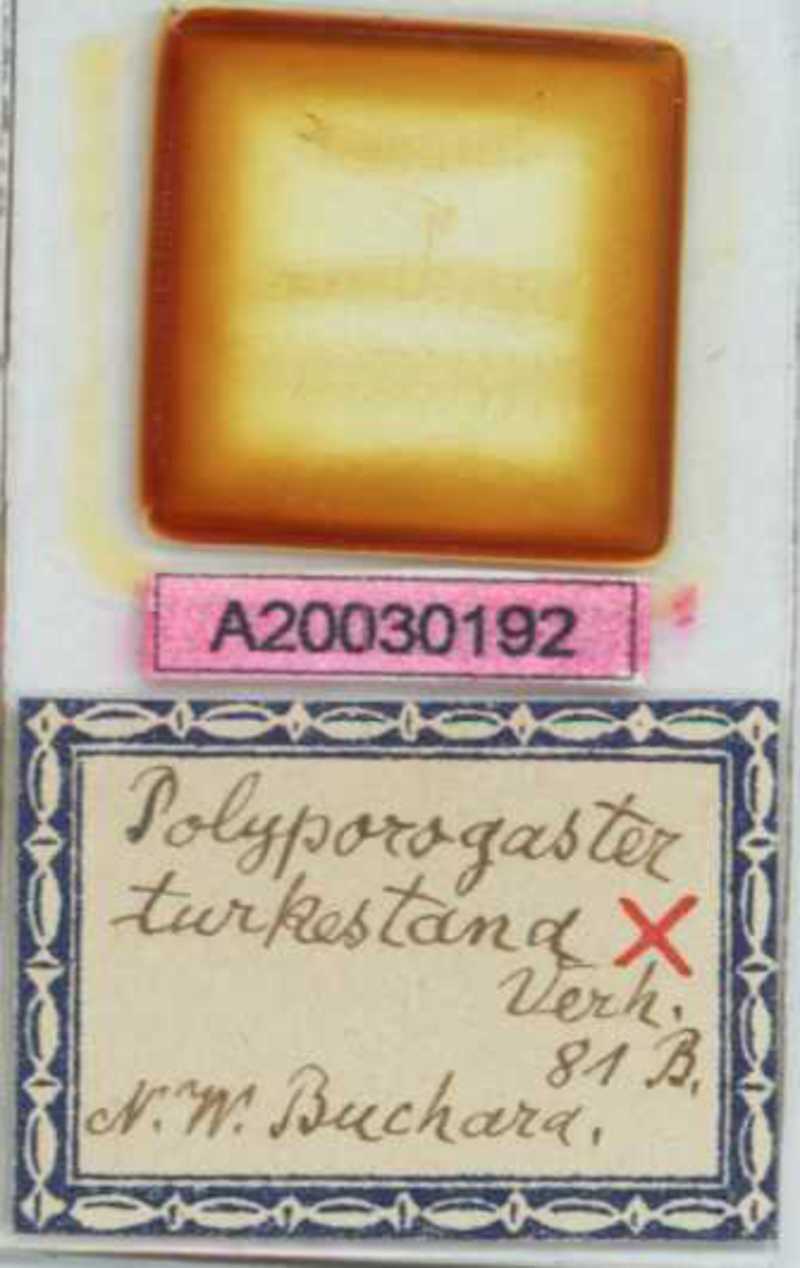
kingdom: Animalia
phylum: Arthropoda
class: Chilopoda
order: Geophilomorpha
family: Himantariidae
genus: Polyporogaster
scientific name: Polyporogaster turkestana
